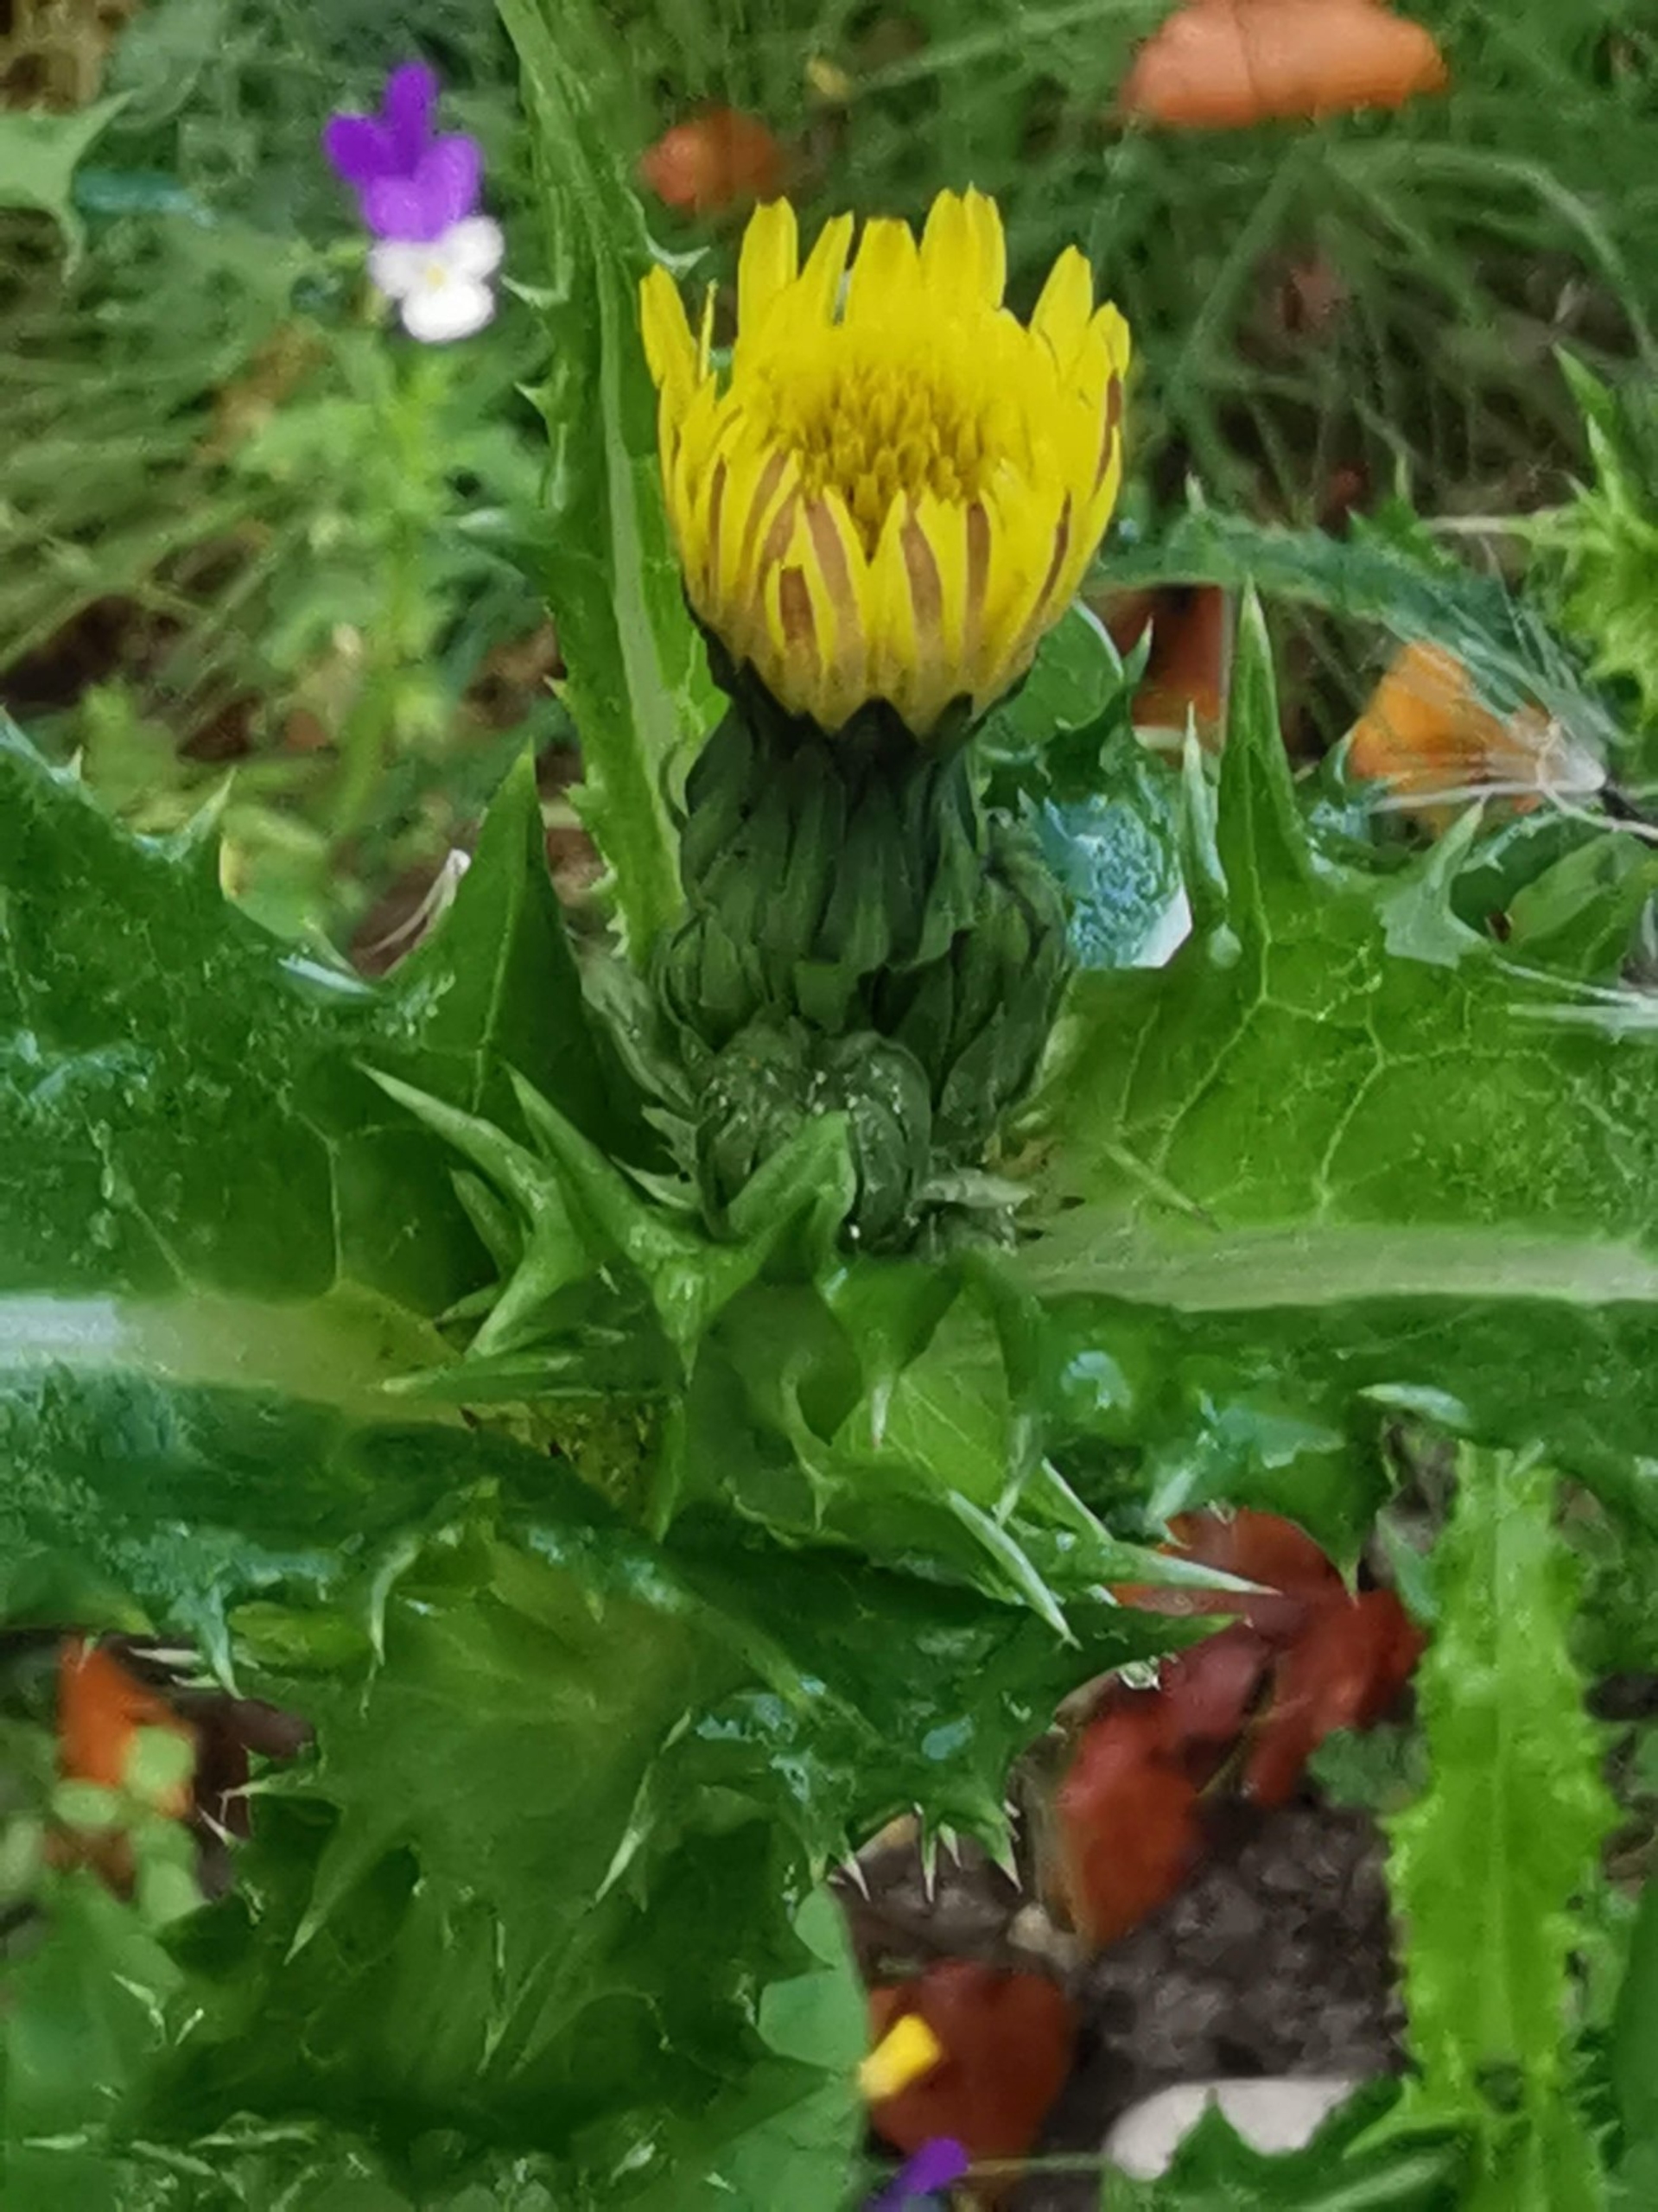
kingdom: Plantae
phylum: Tracheophyta
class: Magnoliopsida
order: Asterales
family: Asteraceae
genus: Sonchus
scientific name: Sonchus asper
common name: Ru svinemælk
